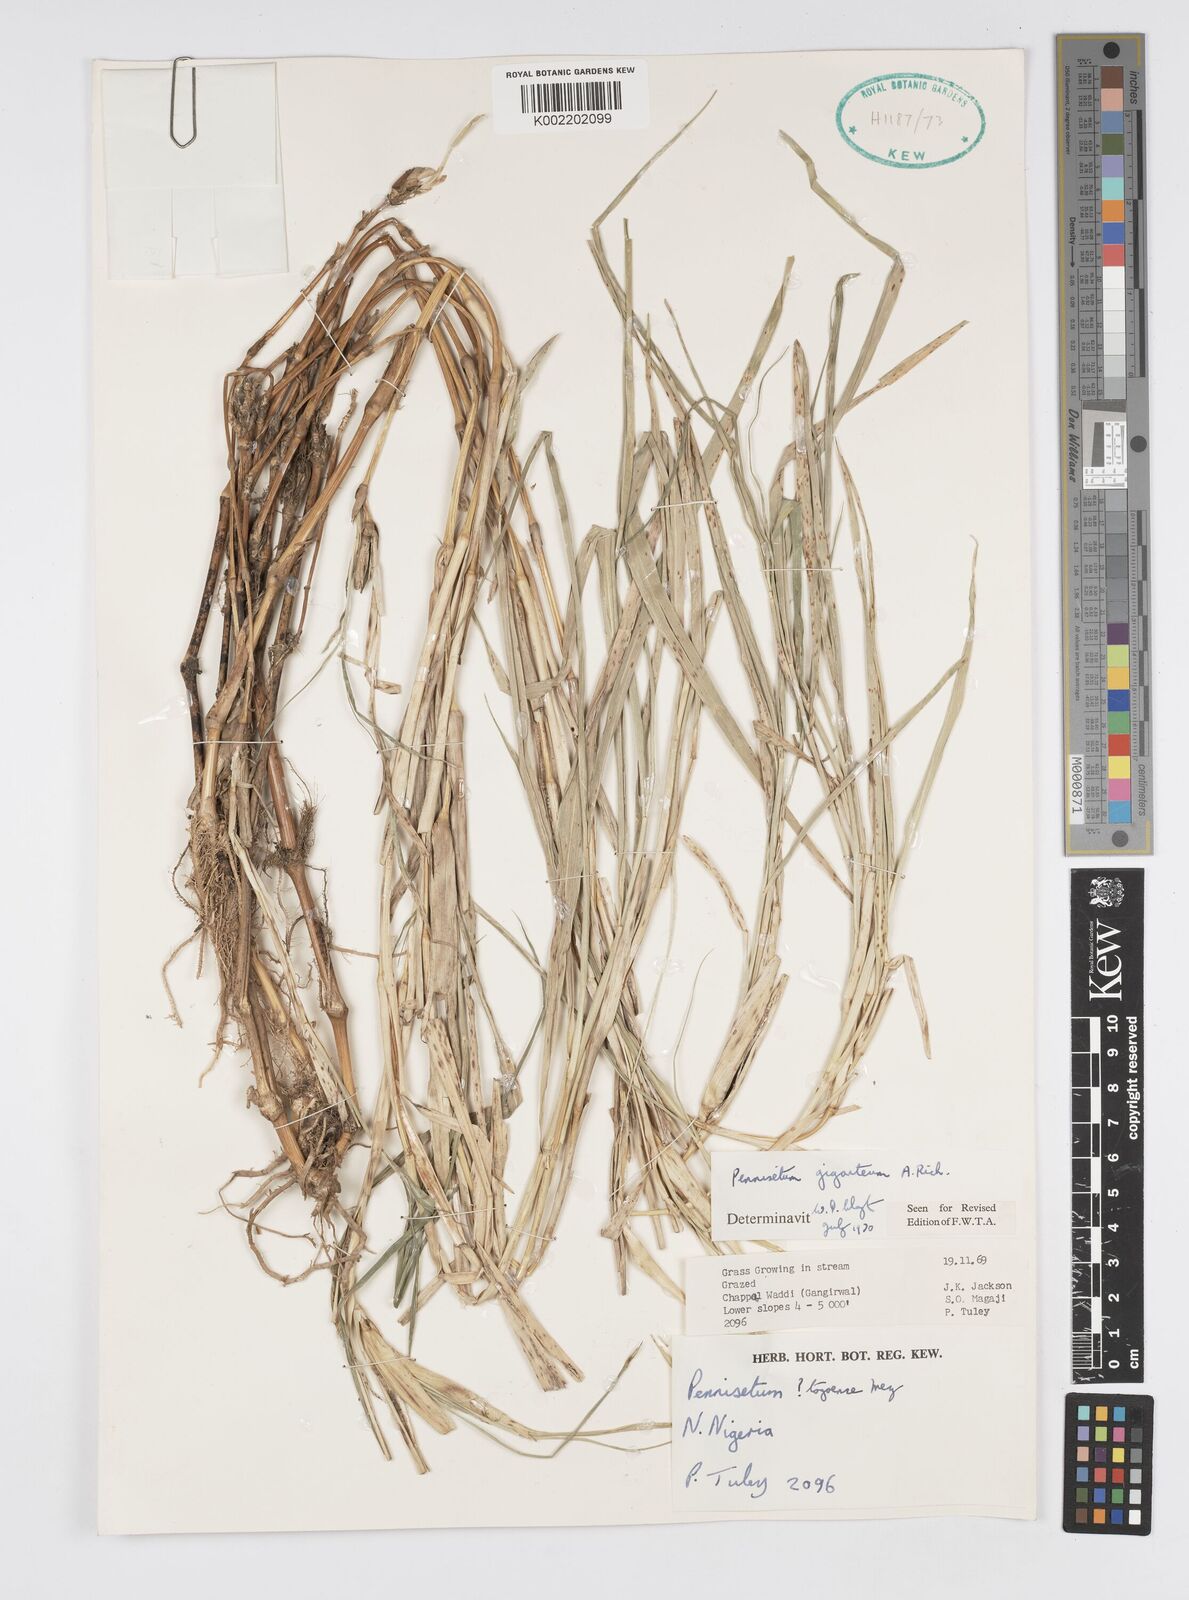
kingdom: Plantae
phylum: Tracheophyta
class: Liliopsida
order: Poales
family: Poaceae
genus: Cenchrus
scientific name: Cenchrus caudatus
